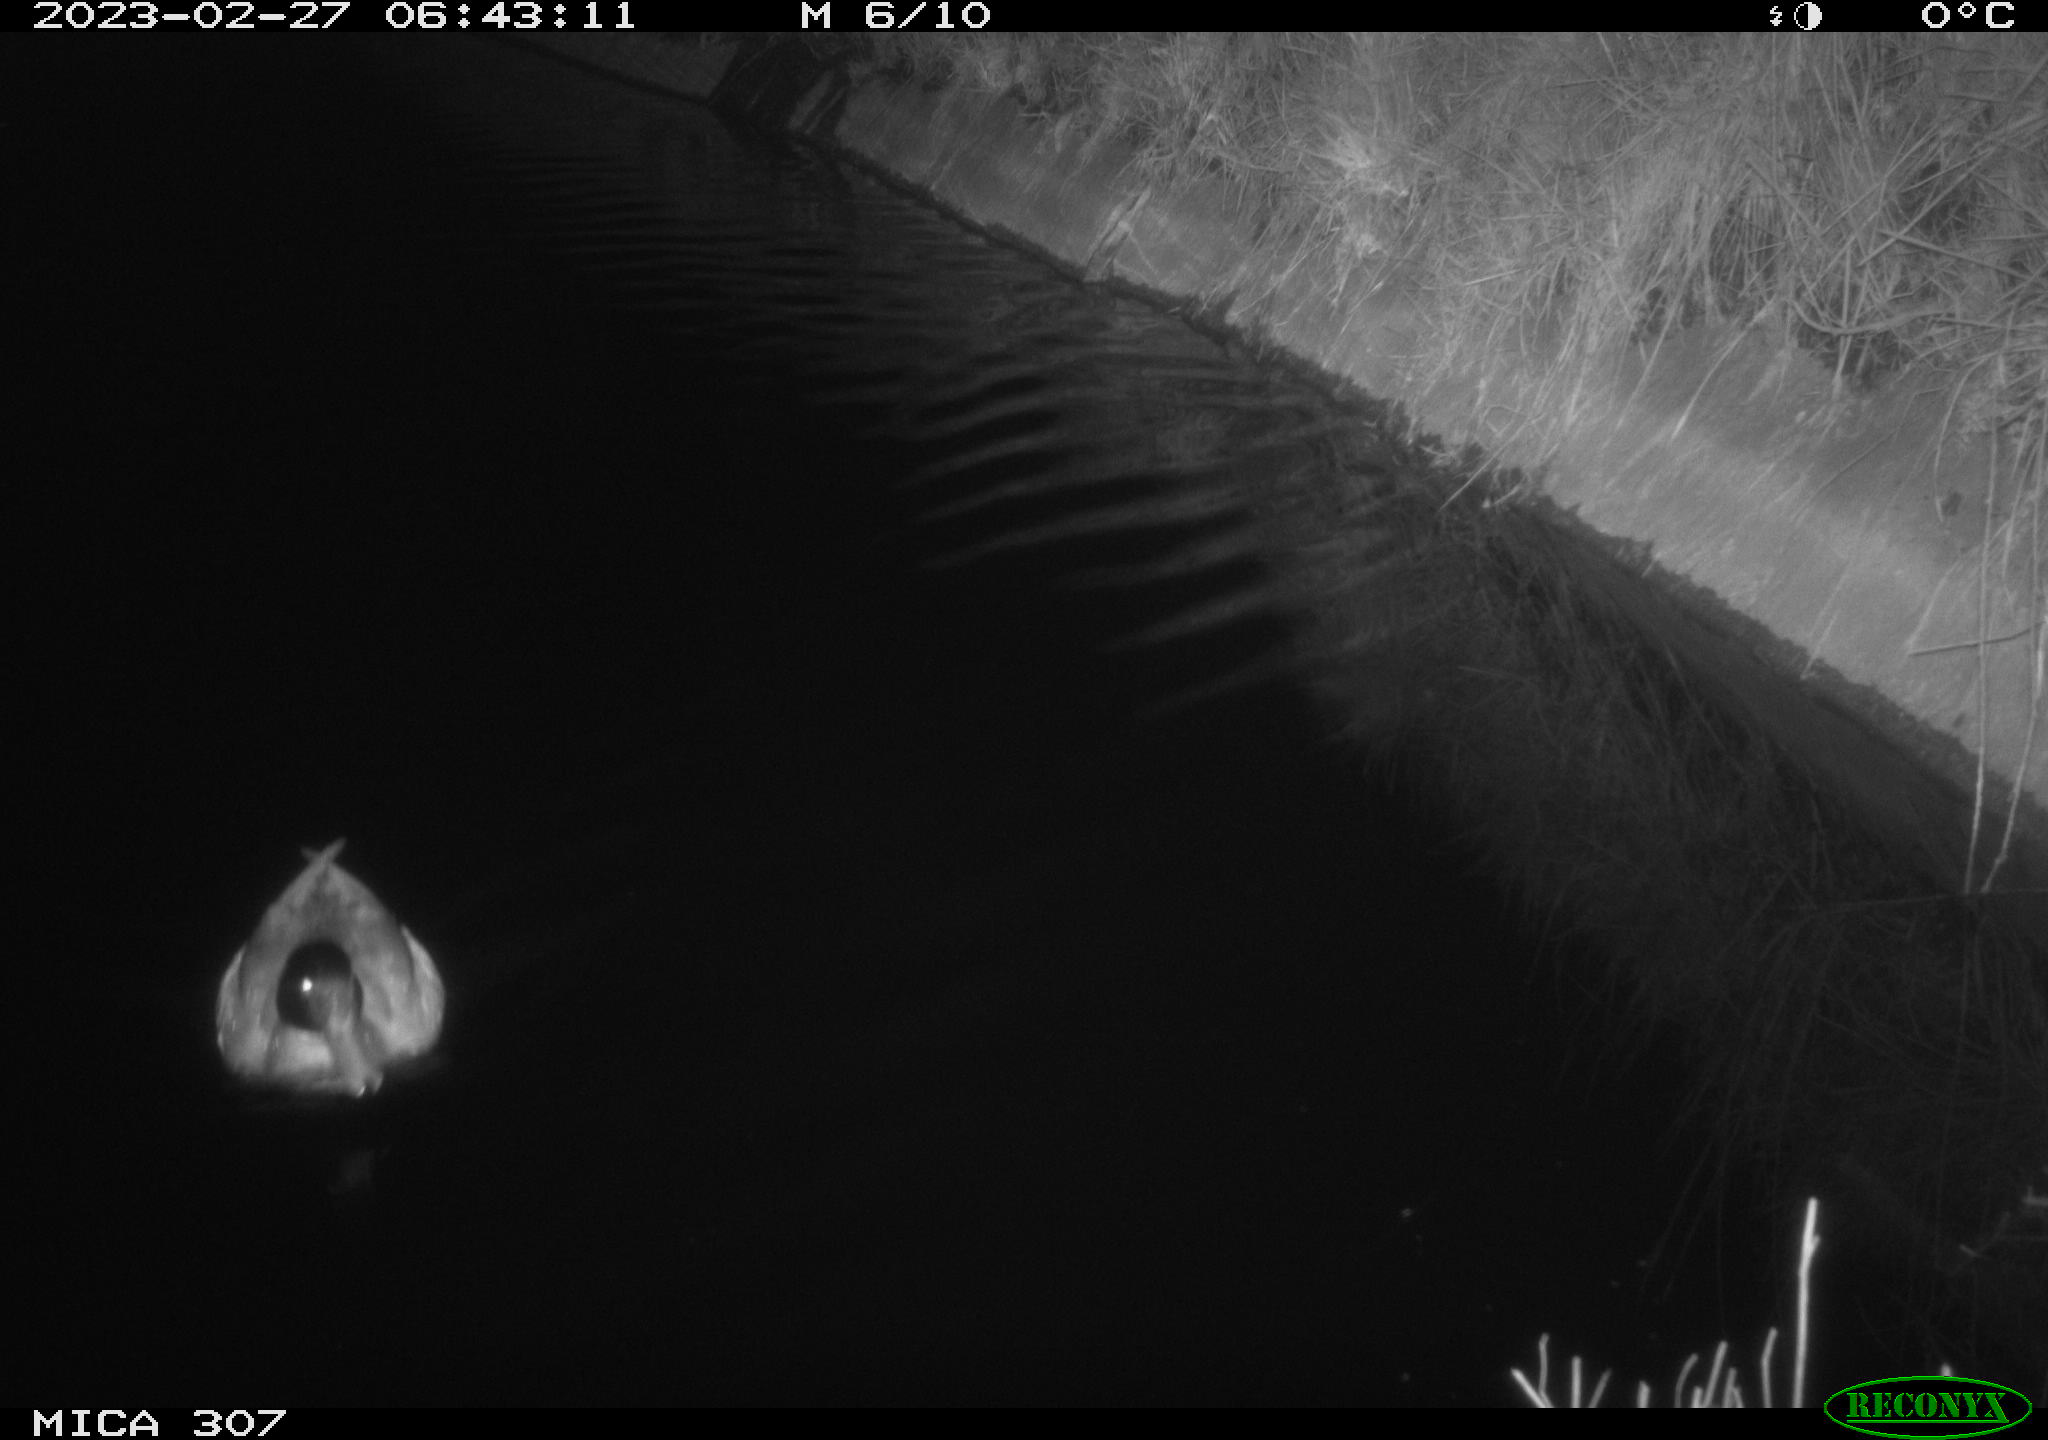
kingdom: Animalia
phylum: Chordata
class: Aves
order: Anseriformes
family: Anatidae
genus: Anas
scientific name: Anas
